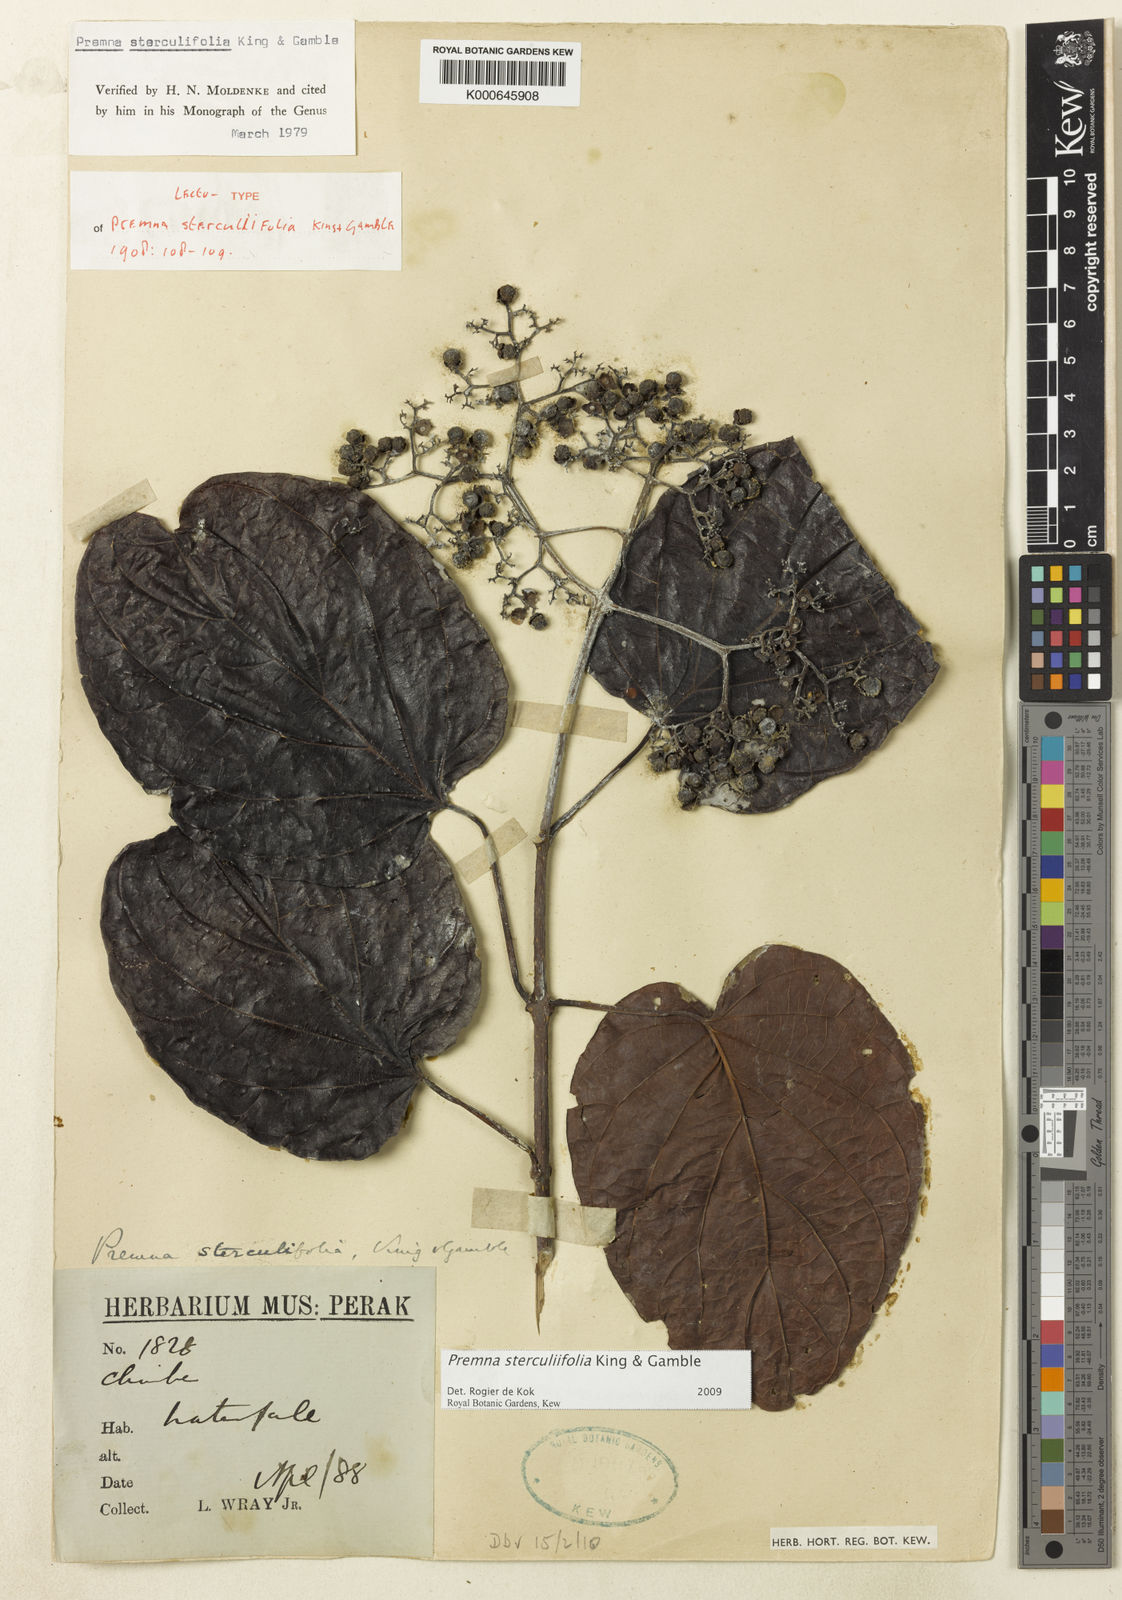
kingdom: Plantae
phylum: Tracheophyta
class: Magnoliopsida
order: Lamiales
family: Lamiaceae
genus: Premna
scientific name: Premna sterculiifolia
